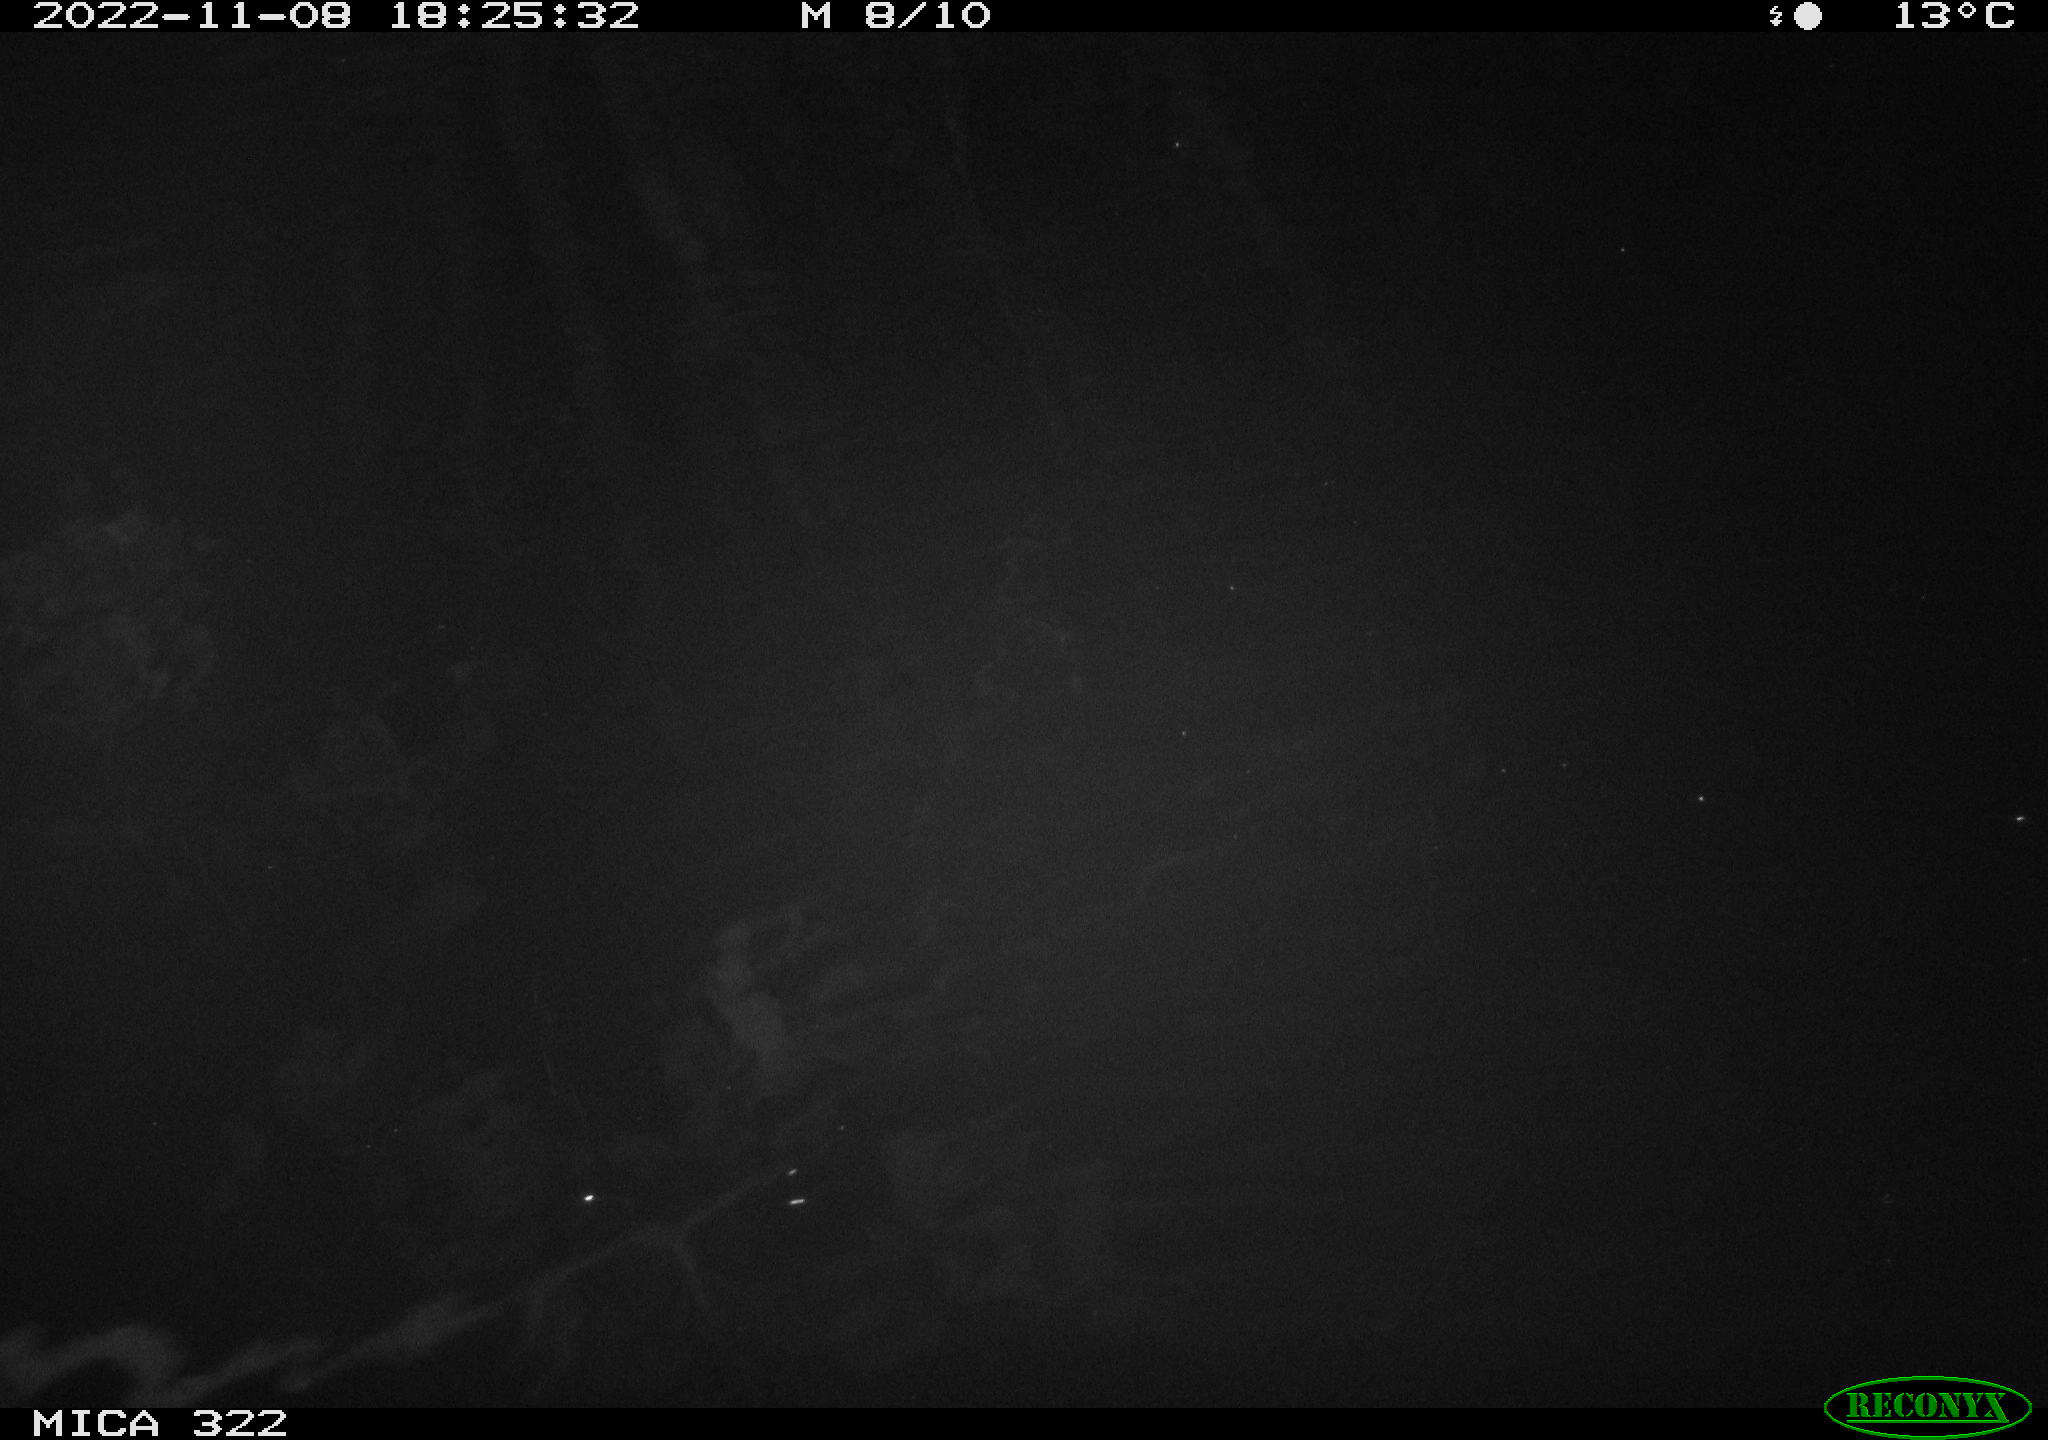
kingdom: Animalia
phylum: Chordata
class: Mammalia
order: Rodentia
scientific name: Rodentia
